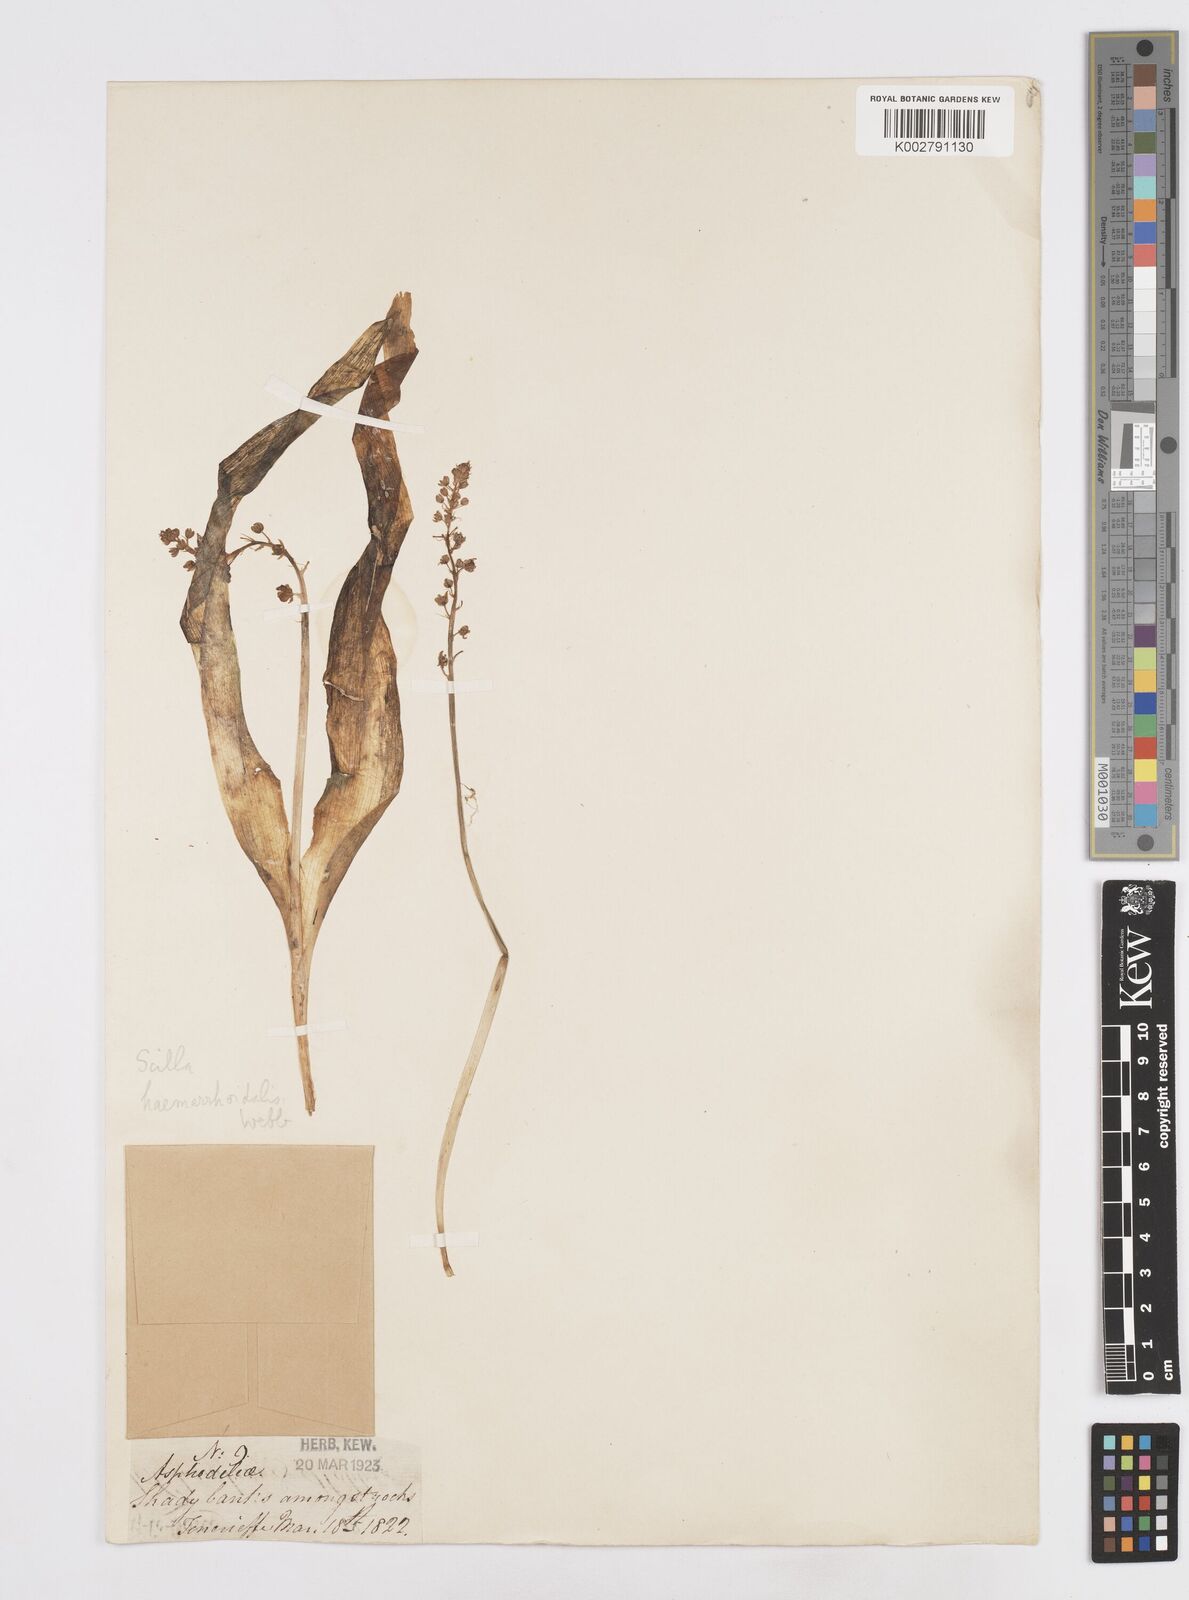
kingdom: Plantae
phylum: Tracheophyta
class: Liliopsida
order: Asparagales
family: Asparagaceae
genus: Scilla
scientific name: Scilla haemorrhoidalis
